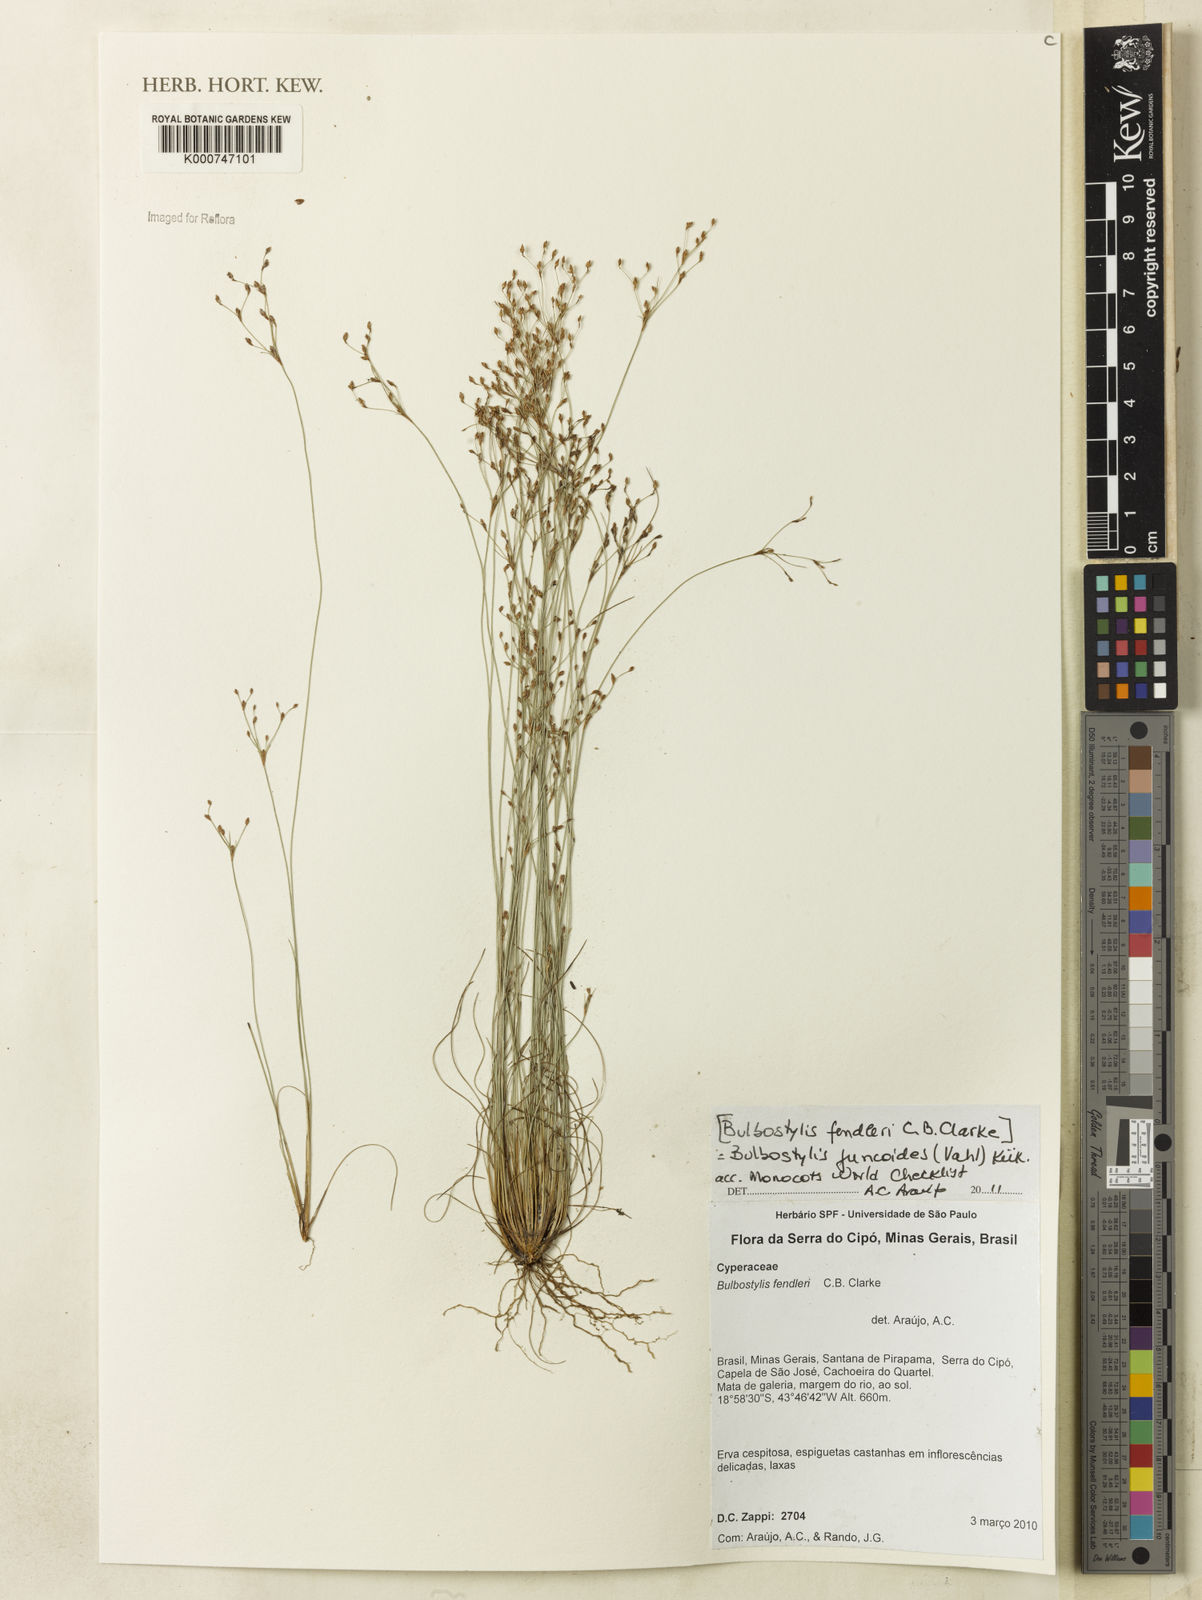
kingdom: Plantae
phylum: Tracheophyta
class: Liliopsida
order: Poales
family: Cyperaceae
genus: Bulbostylis
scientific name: Bulbostylis juncoides
